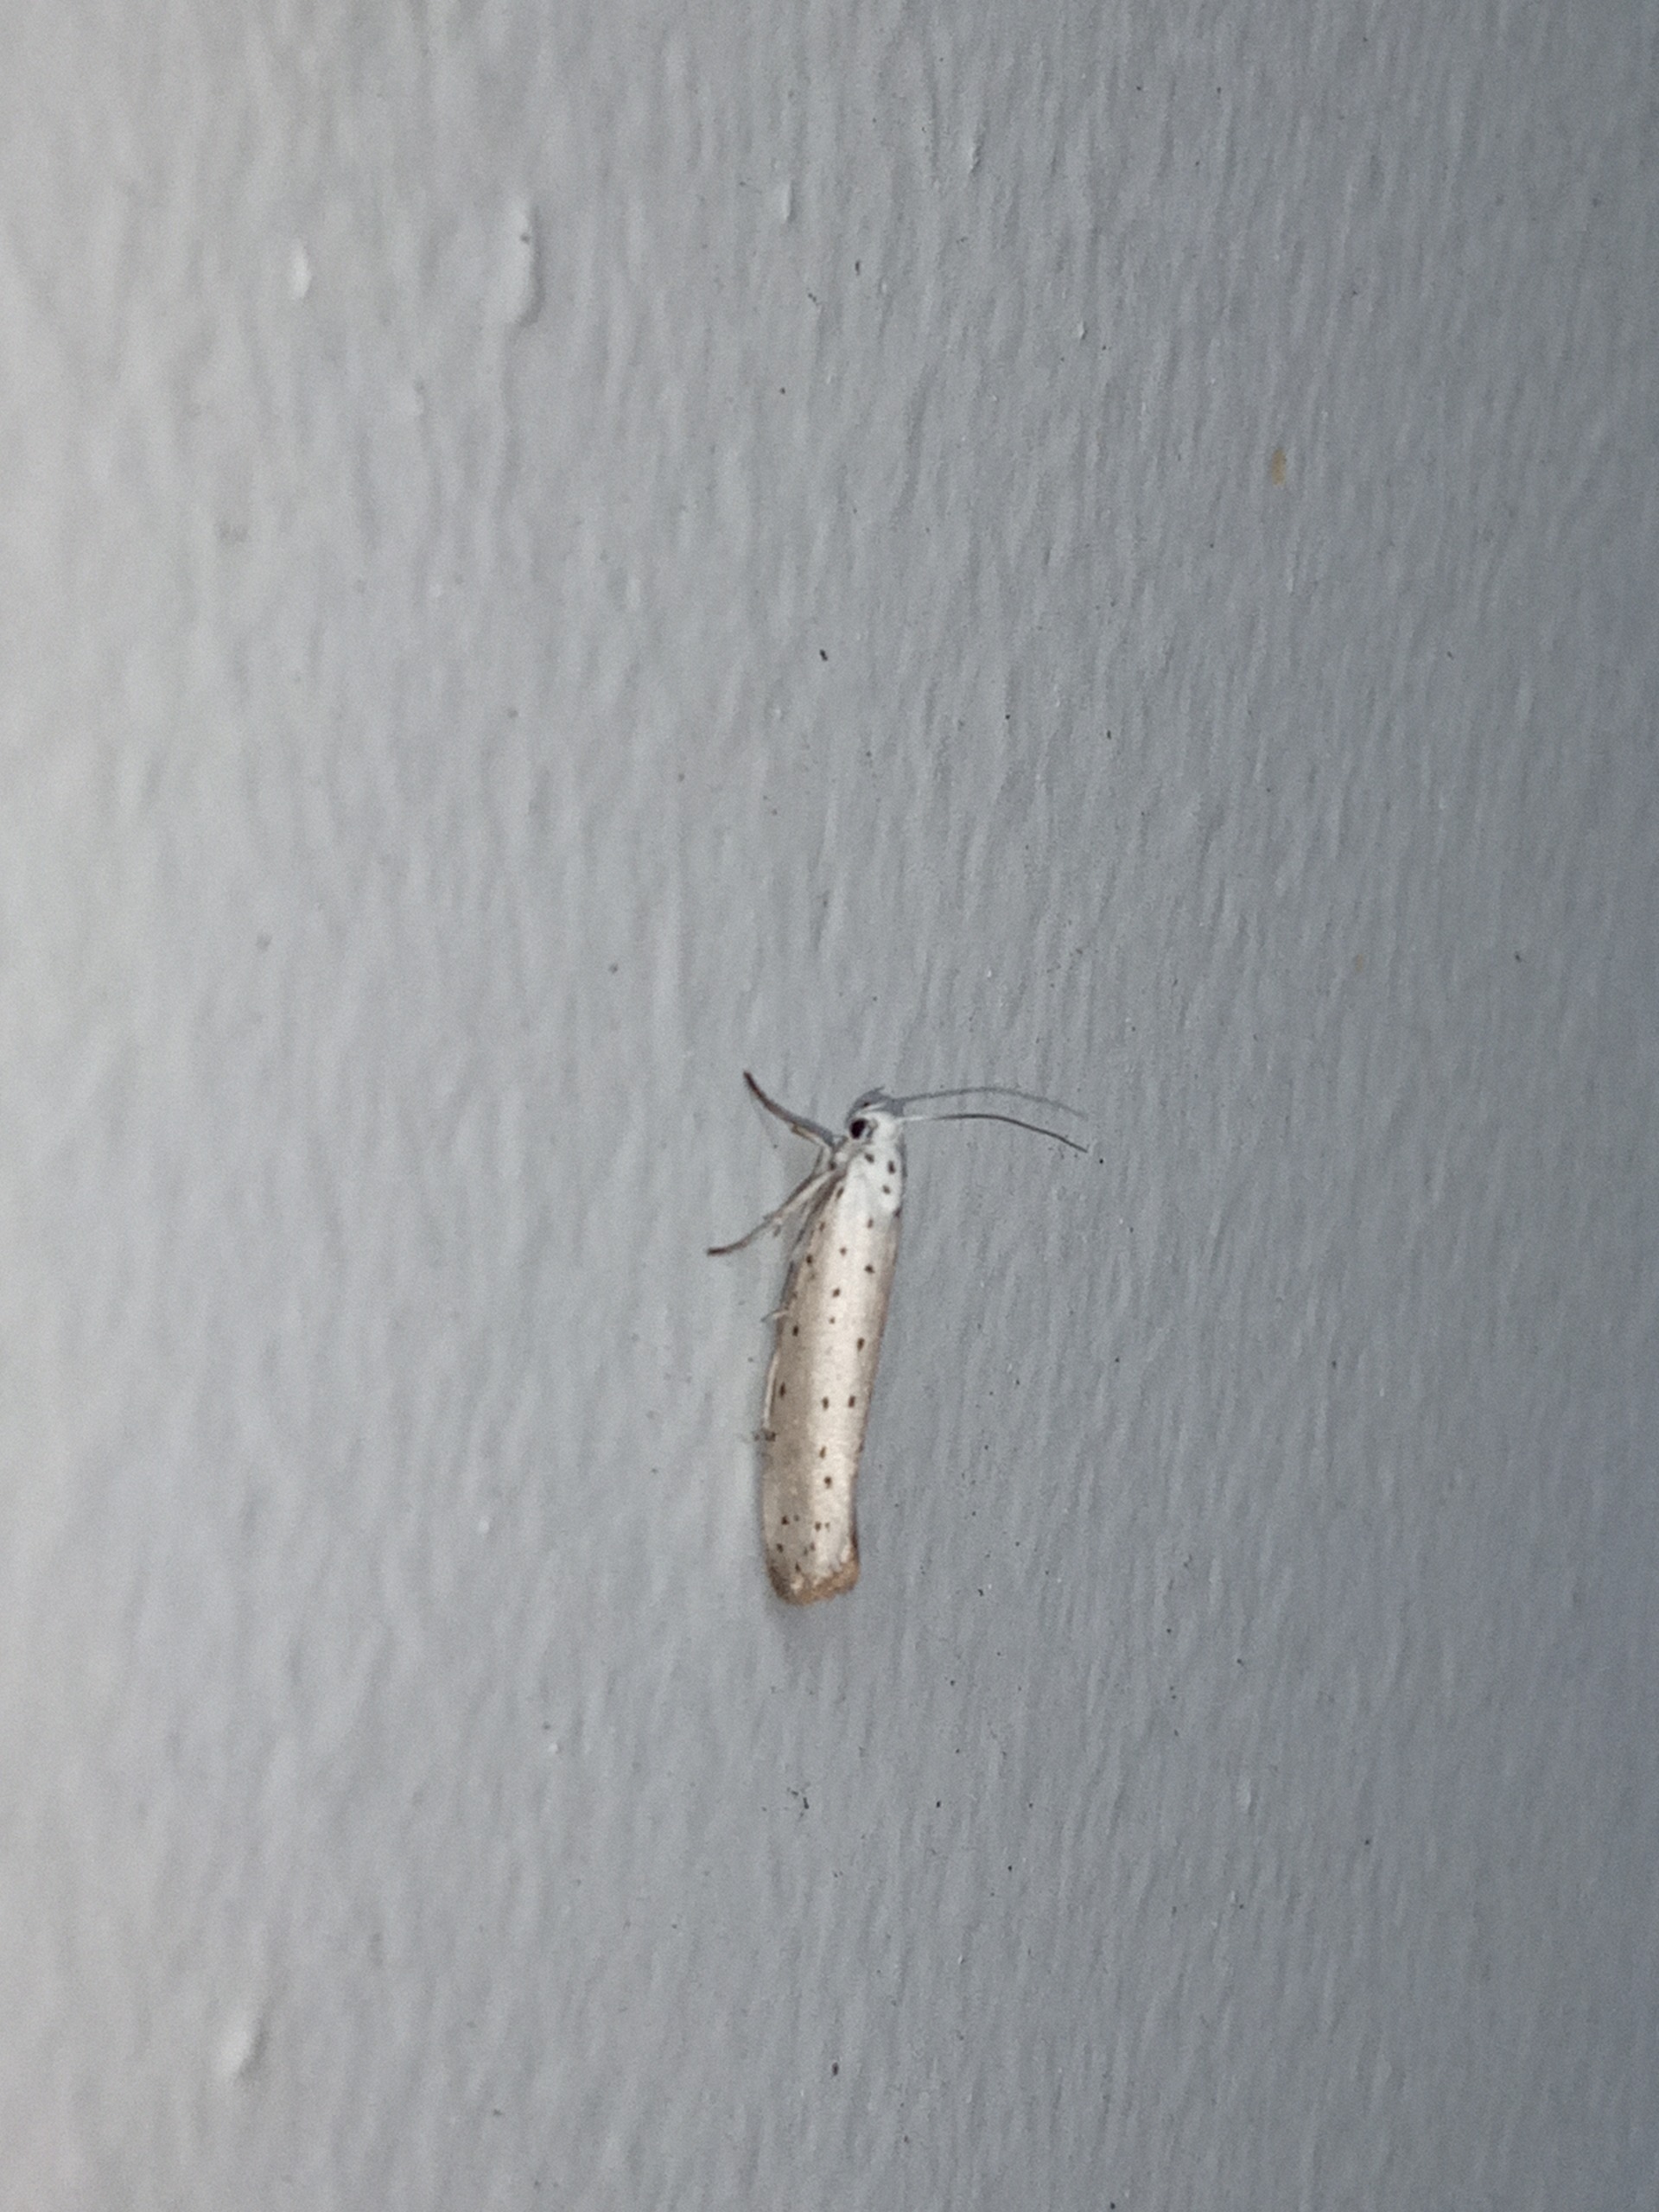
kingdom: Animalia
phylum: Arthropoda
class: Insecta
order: Lepidoptera
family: Yponomeutidae
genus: Yponomeuta
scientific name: Yponomeuta
